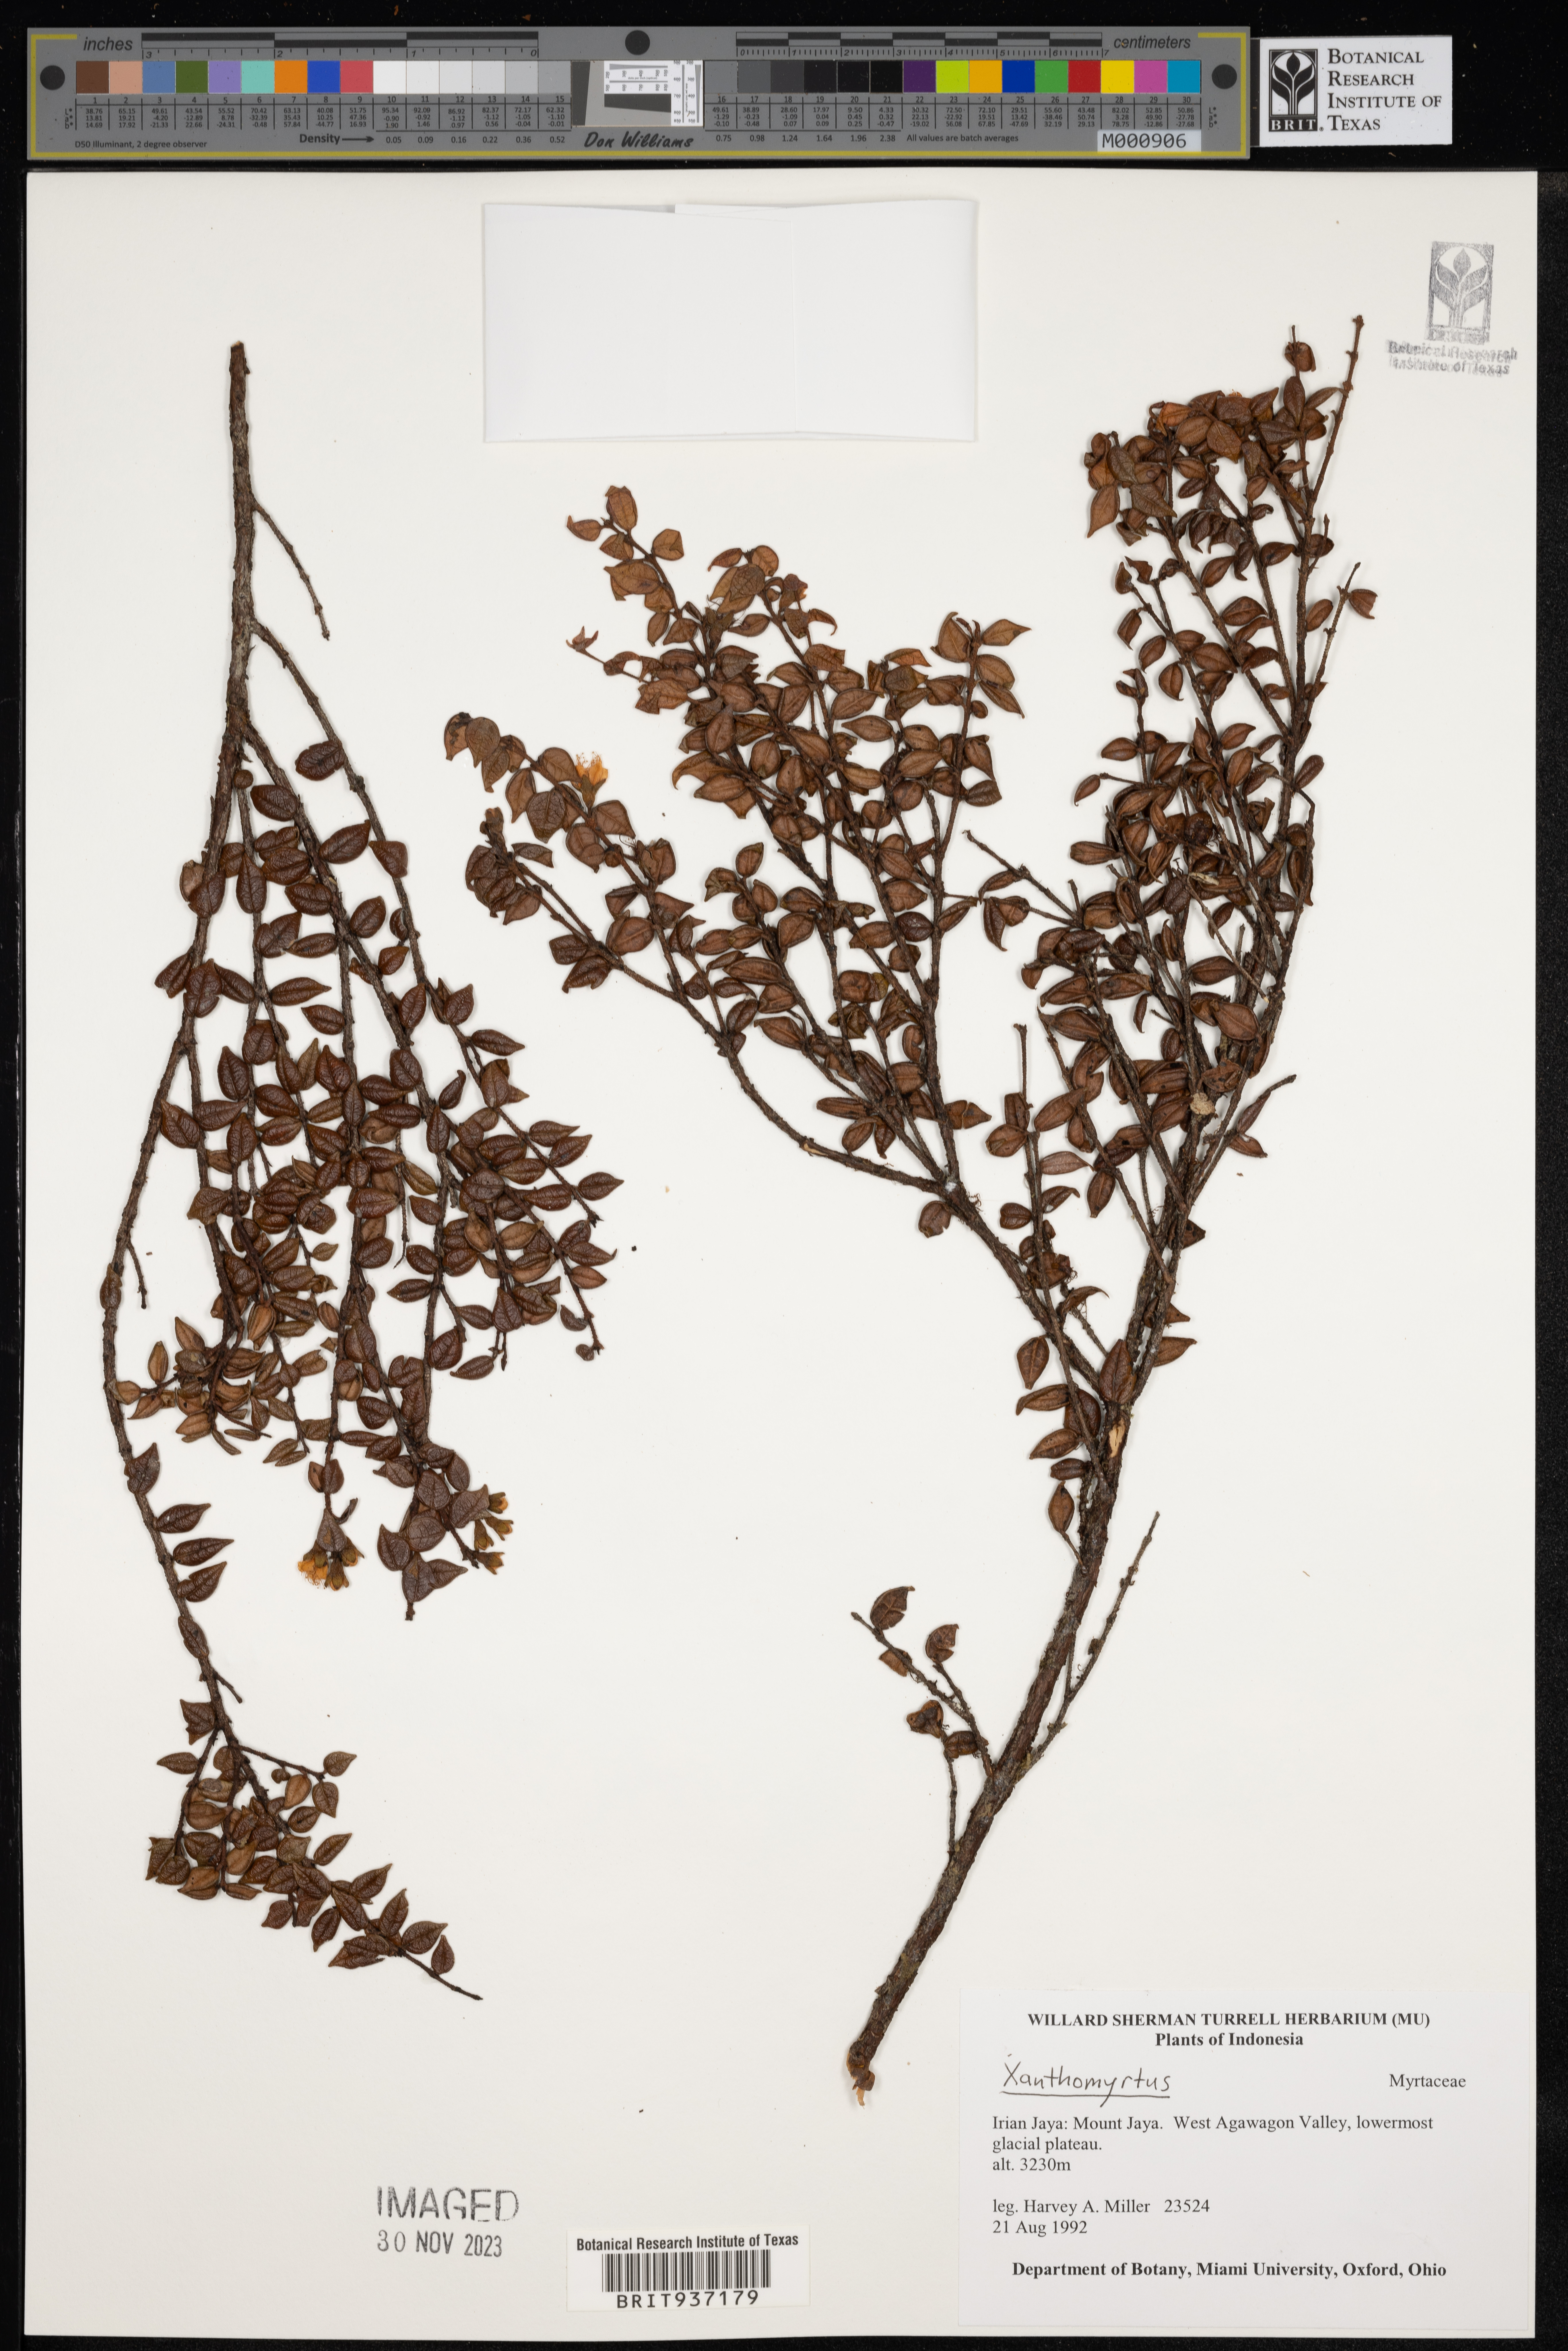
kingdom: Plantae
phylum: Tracheophyta
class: Magnoliopsida
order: Myrtales
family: Myrtaceae
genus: Xanthomyrtus
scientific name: Xanthomyrtus
